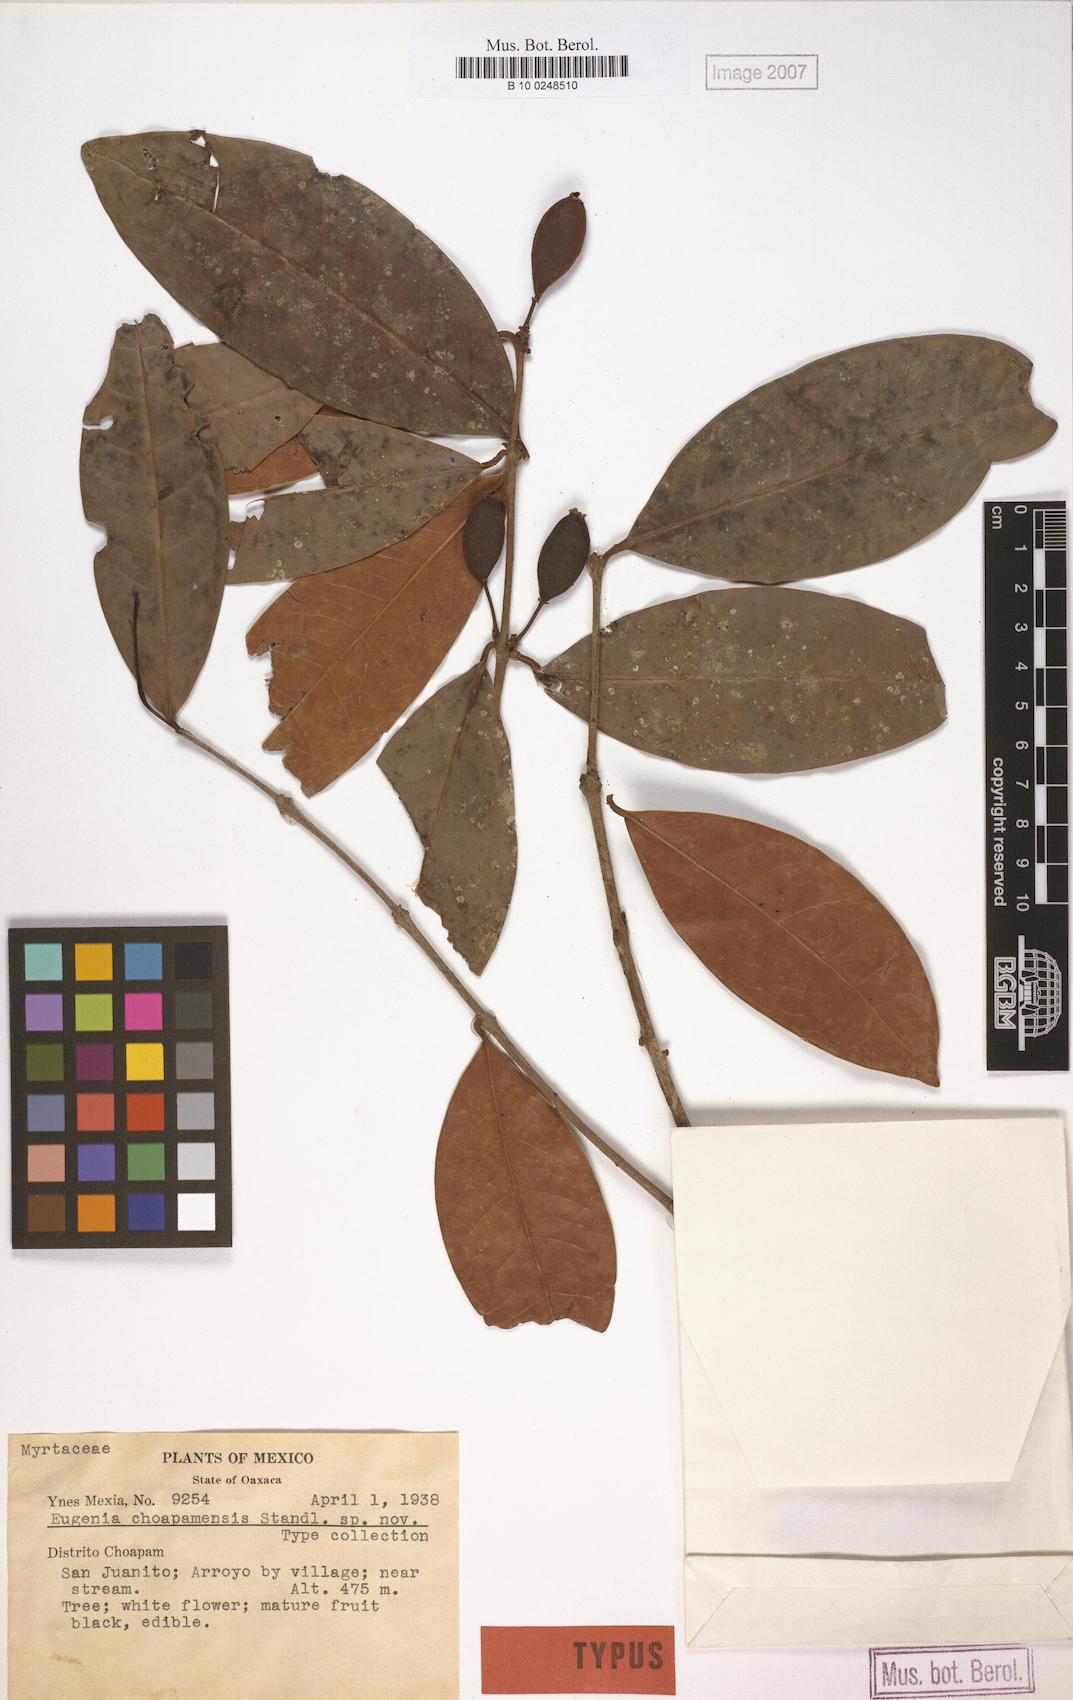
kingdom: Plantae
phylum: Tracheophyta
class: Magnoliopsida
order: Myrtales
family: Myrtaceae
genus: Eugenia
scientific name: Eugenia choapamensis
